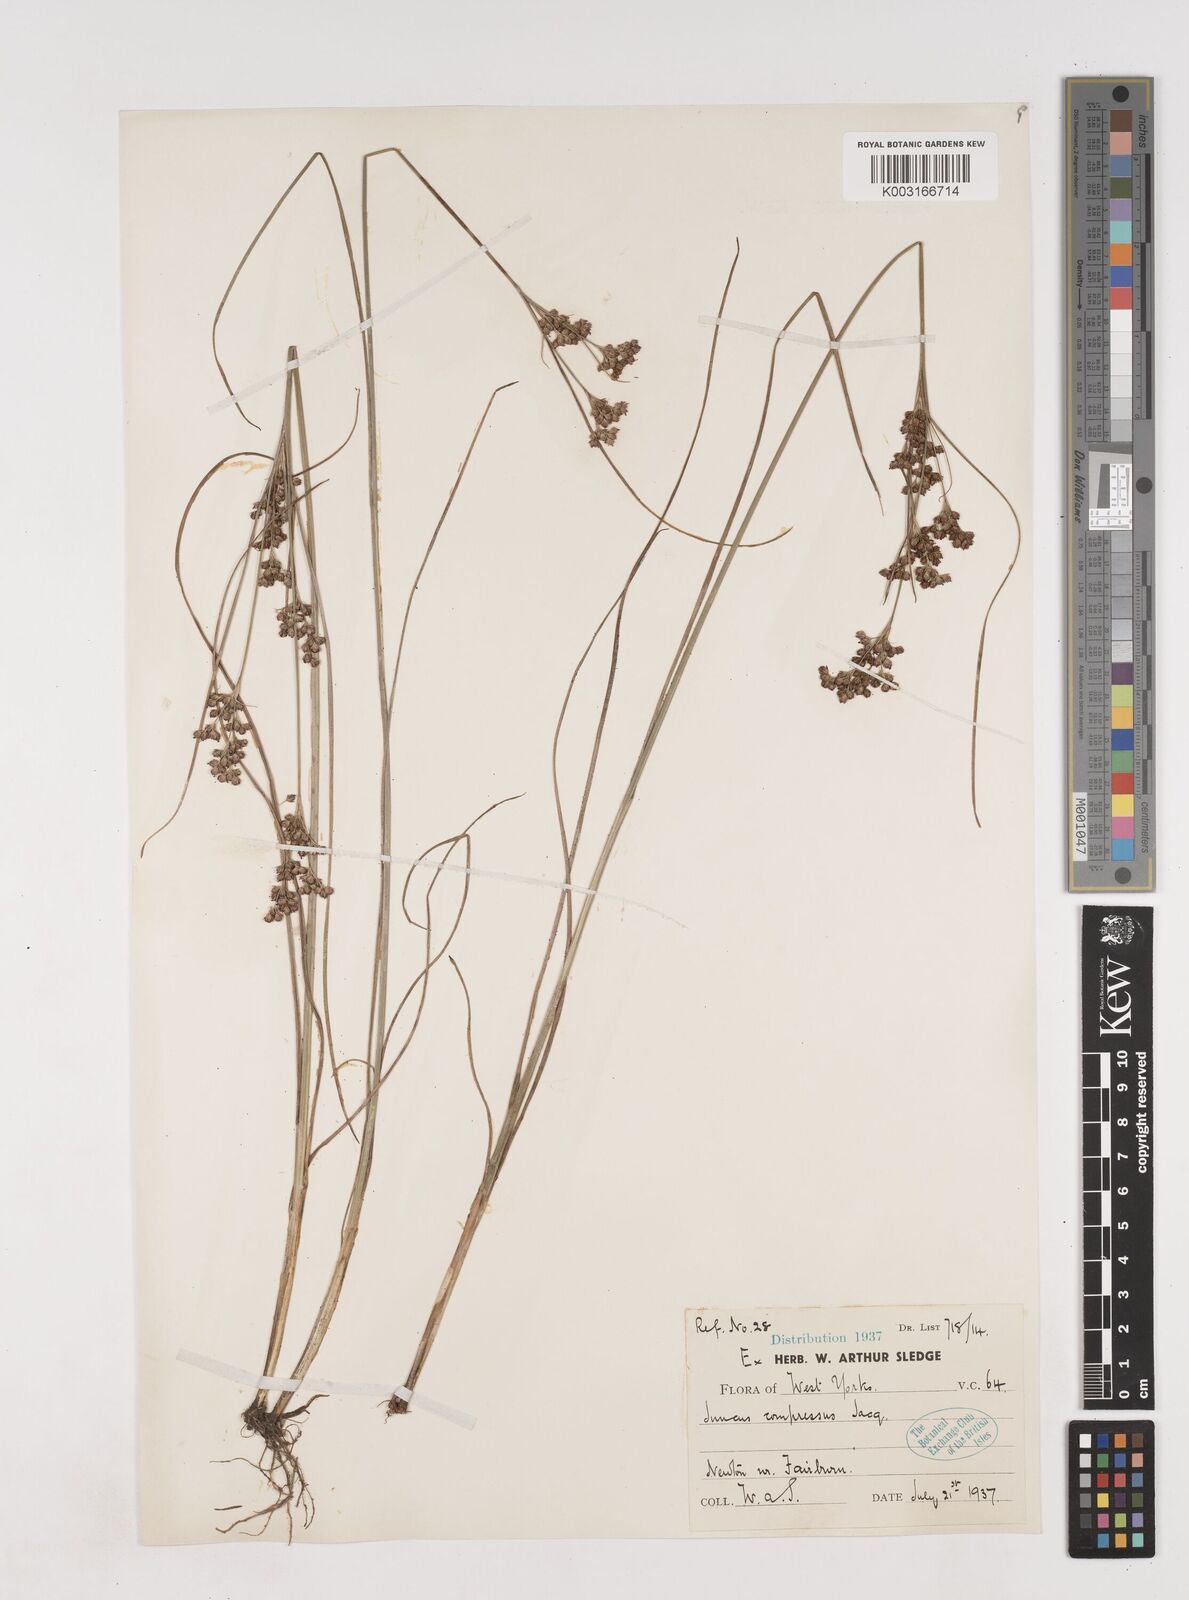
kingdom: Plantae
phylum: Tracheophyta
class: Liliopsida
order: Poales
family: Juncaceae
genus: Juncus
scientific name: Juncus compressus
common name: Round-fruited rush
